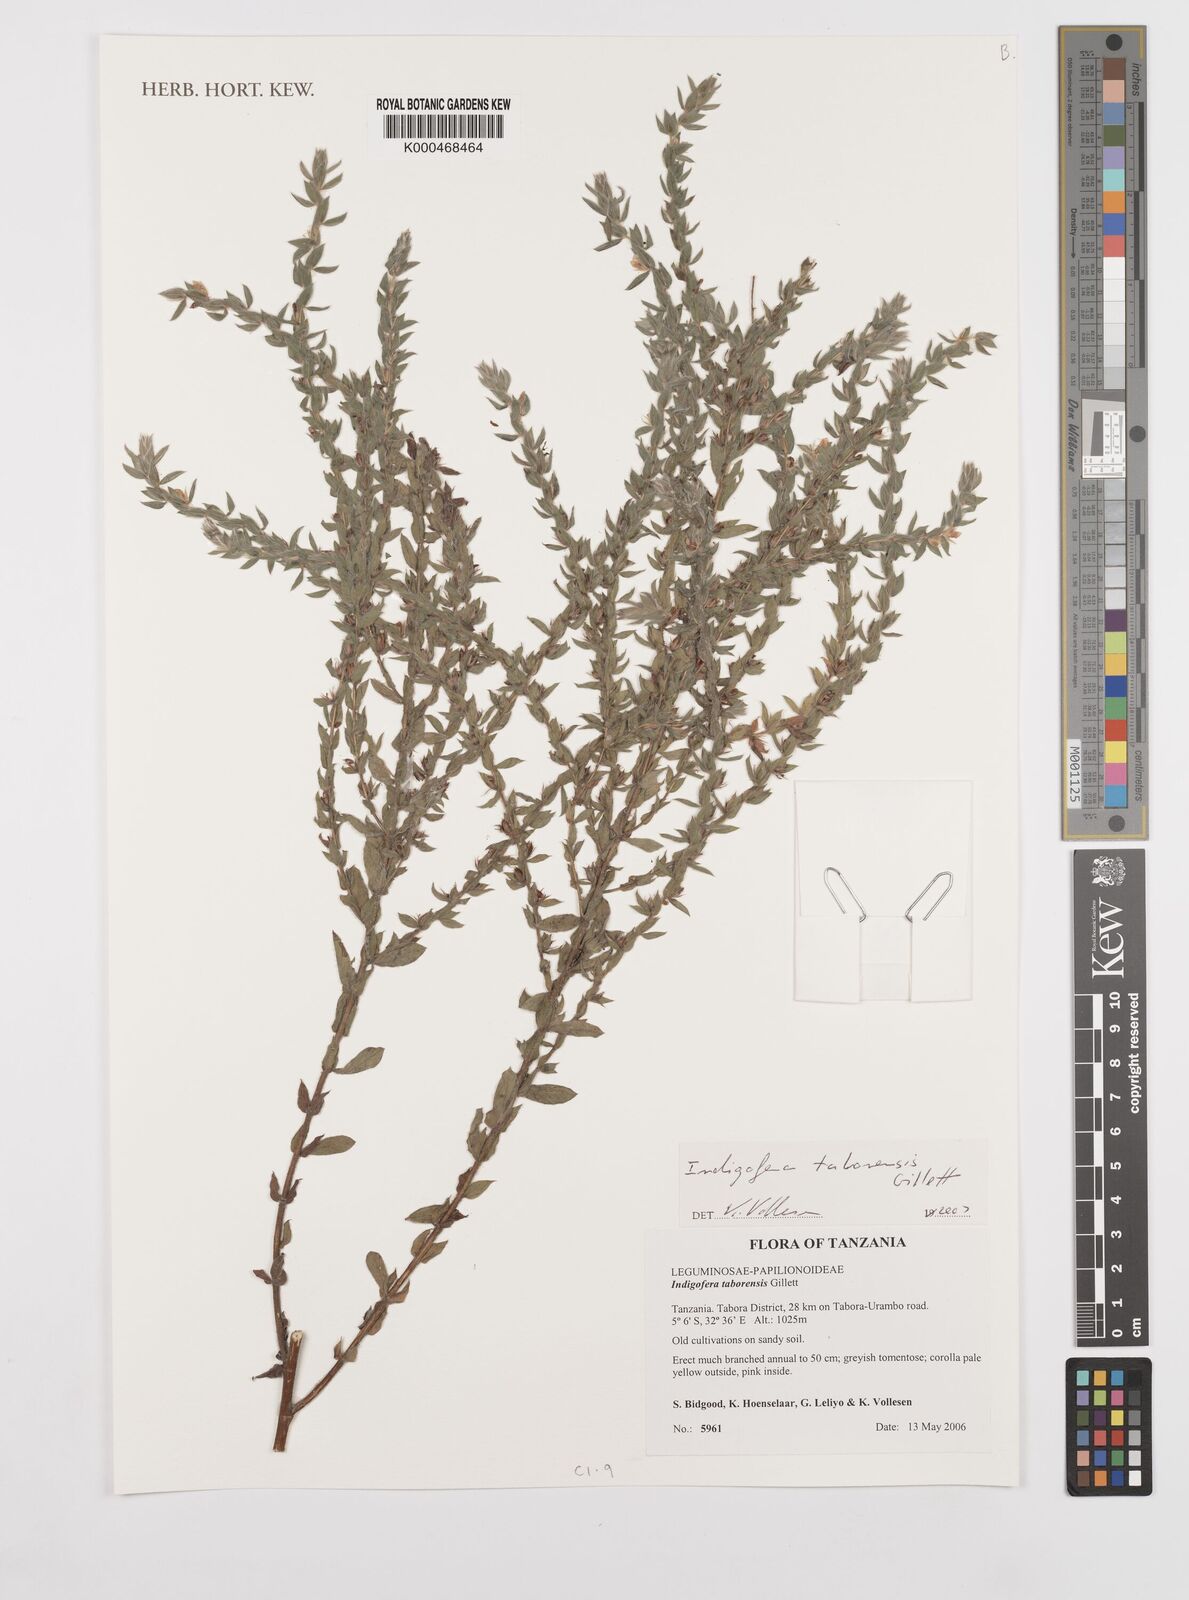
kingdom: Plantae
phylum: Tracheophyta
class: Magnoliopsida
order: Fabales
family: Fabaceae
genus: Indigofera
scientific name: Indigofera taborensis
